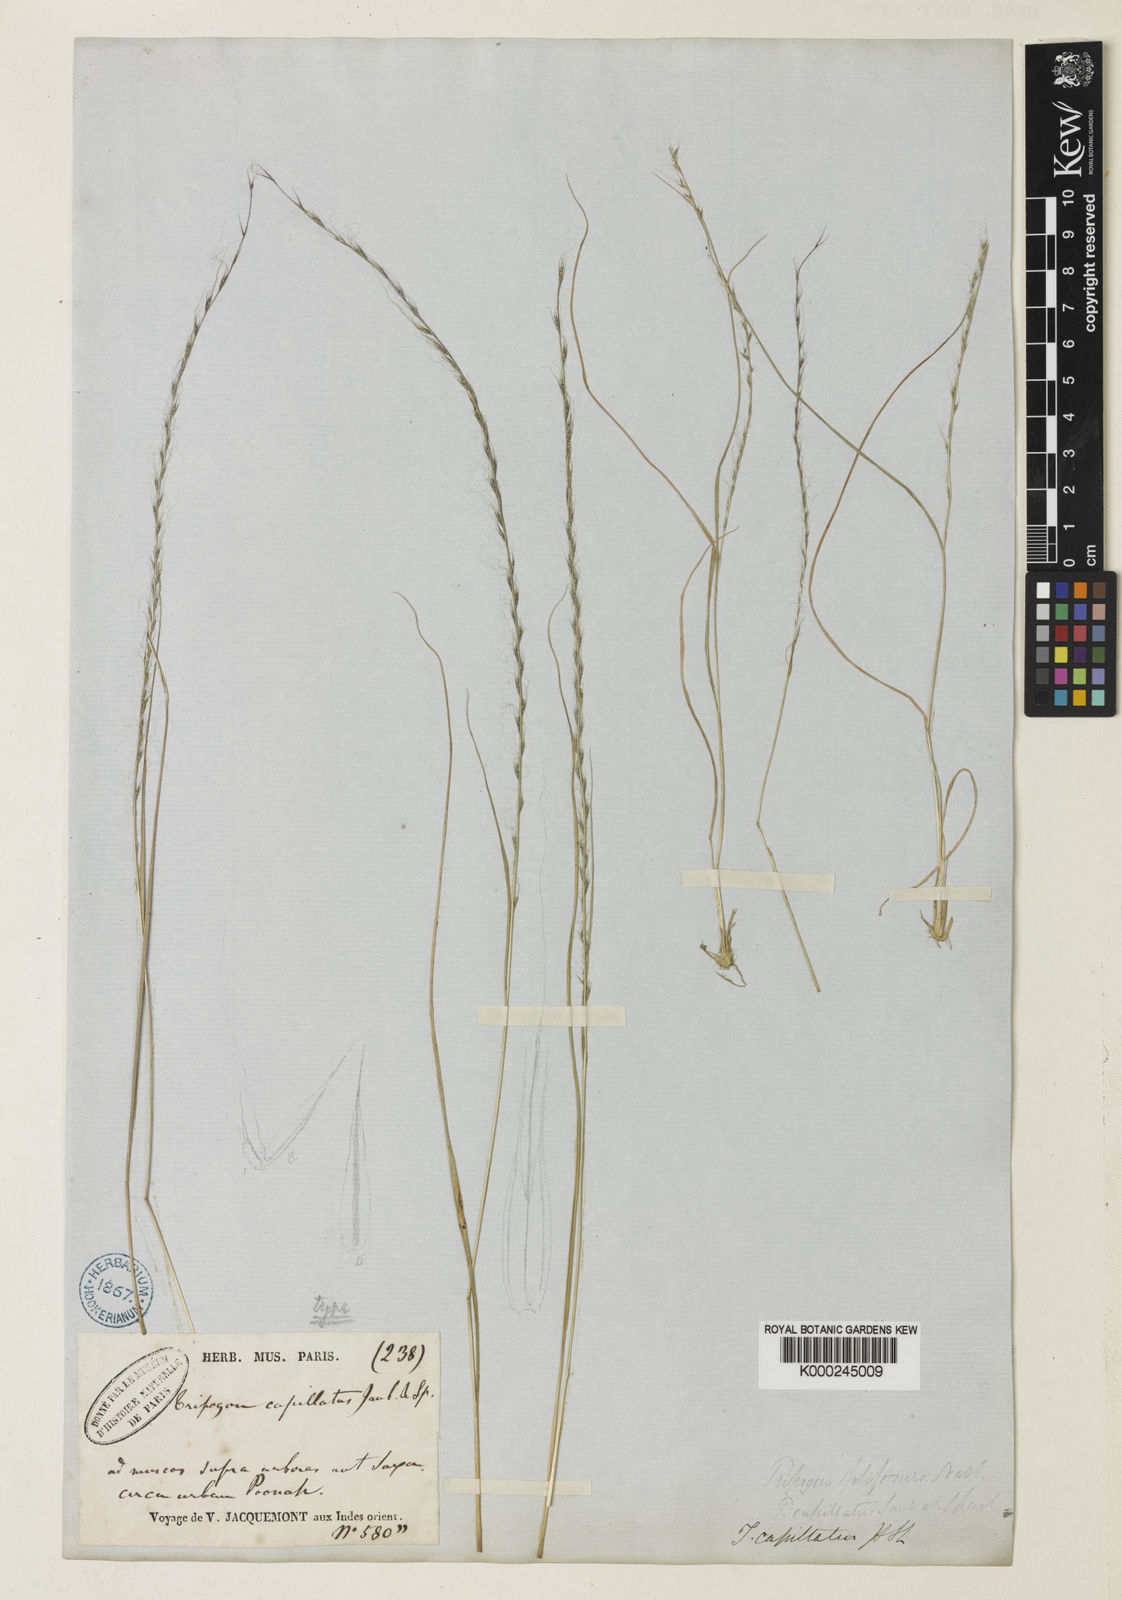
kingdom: Plantae
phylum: Tracheophyta
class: Liliopsida
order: Poales
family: Poaceae
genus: Tripogon
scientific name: Tripogon capillatus
